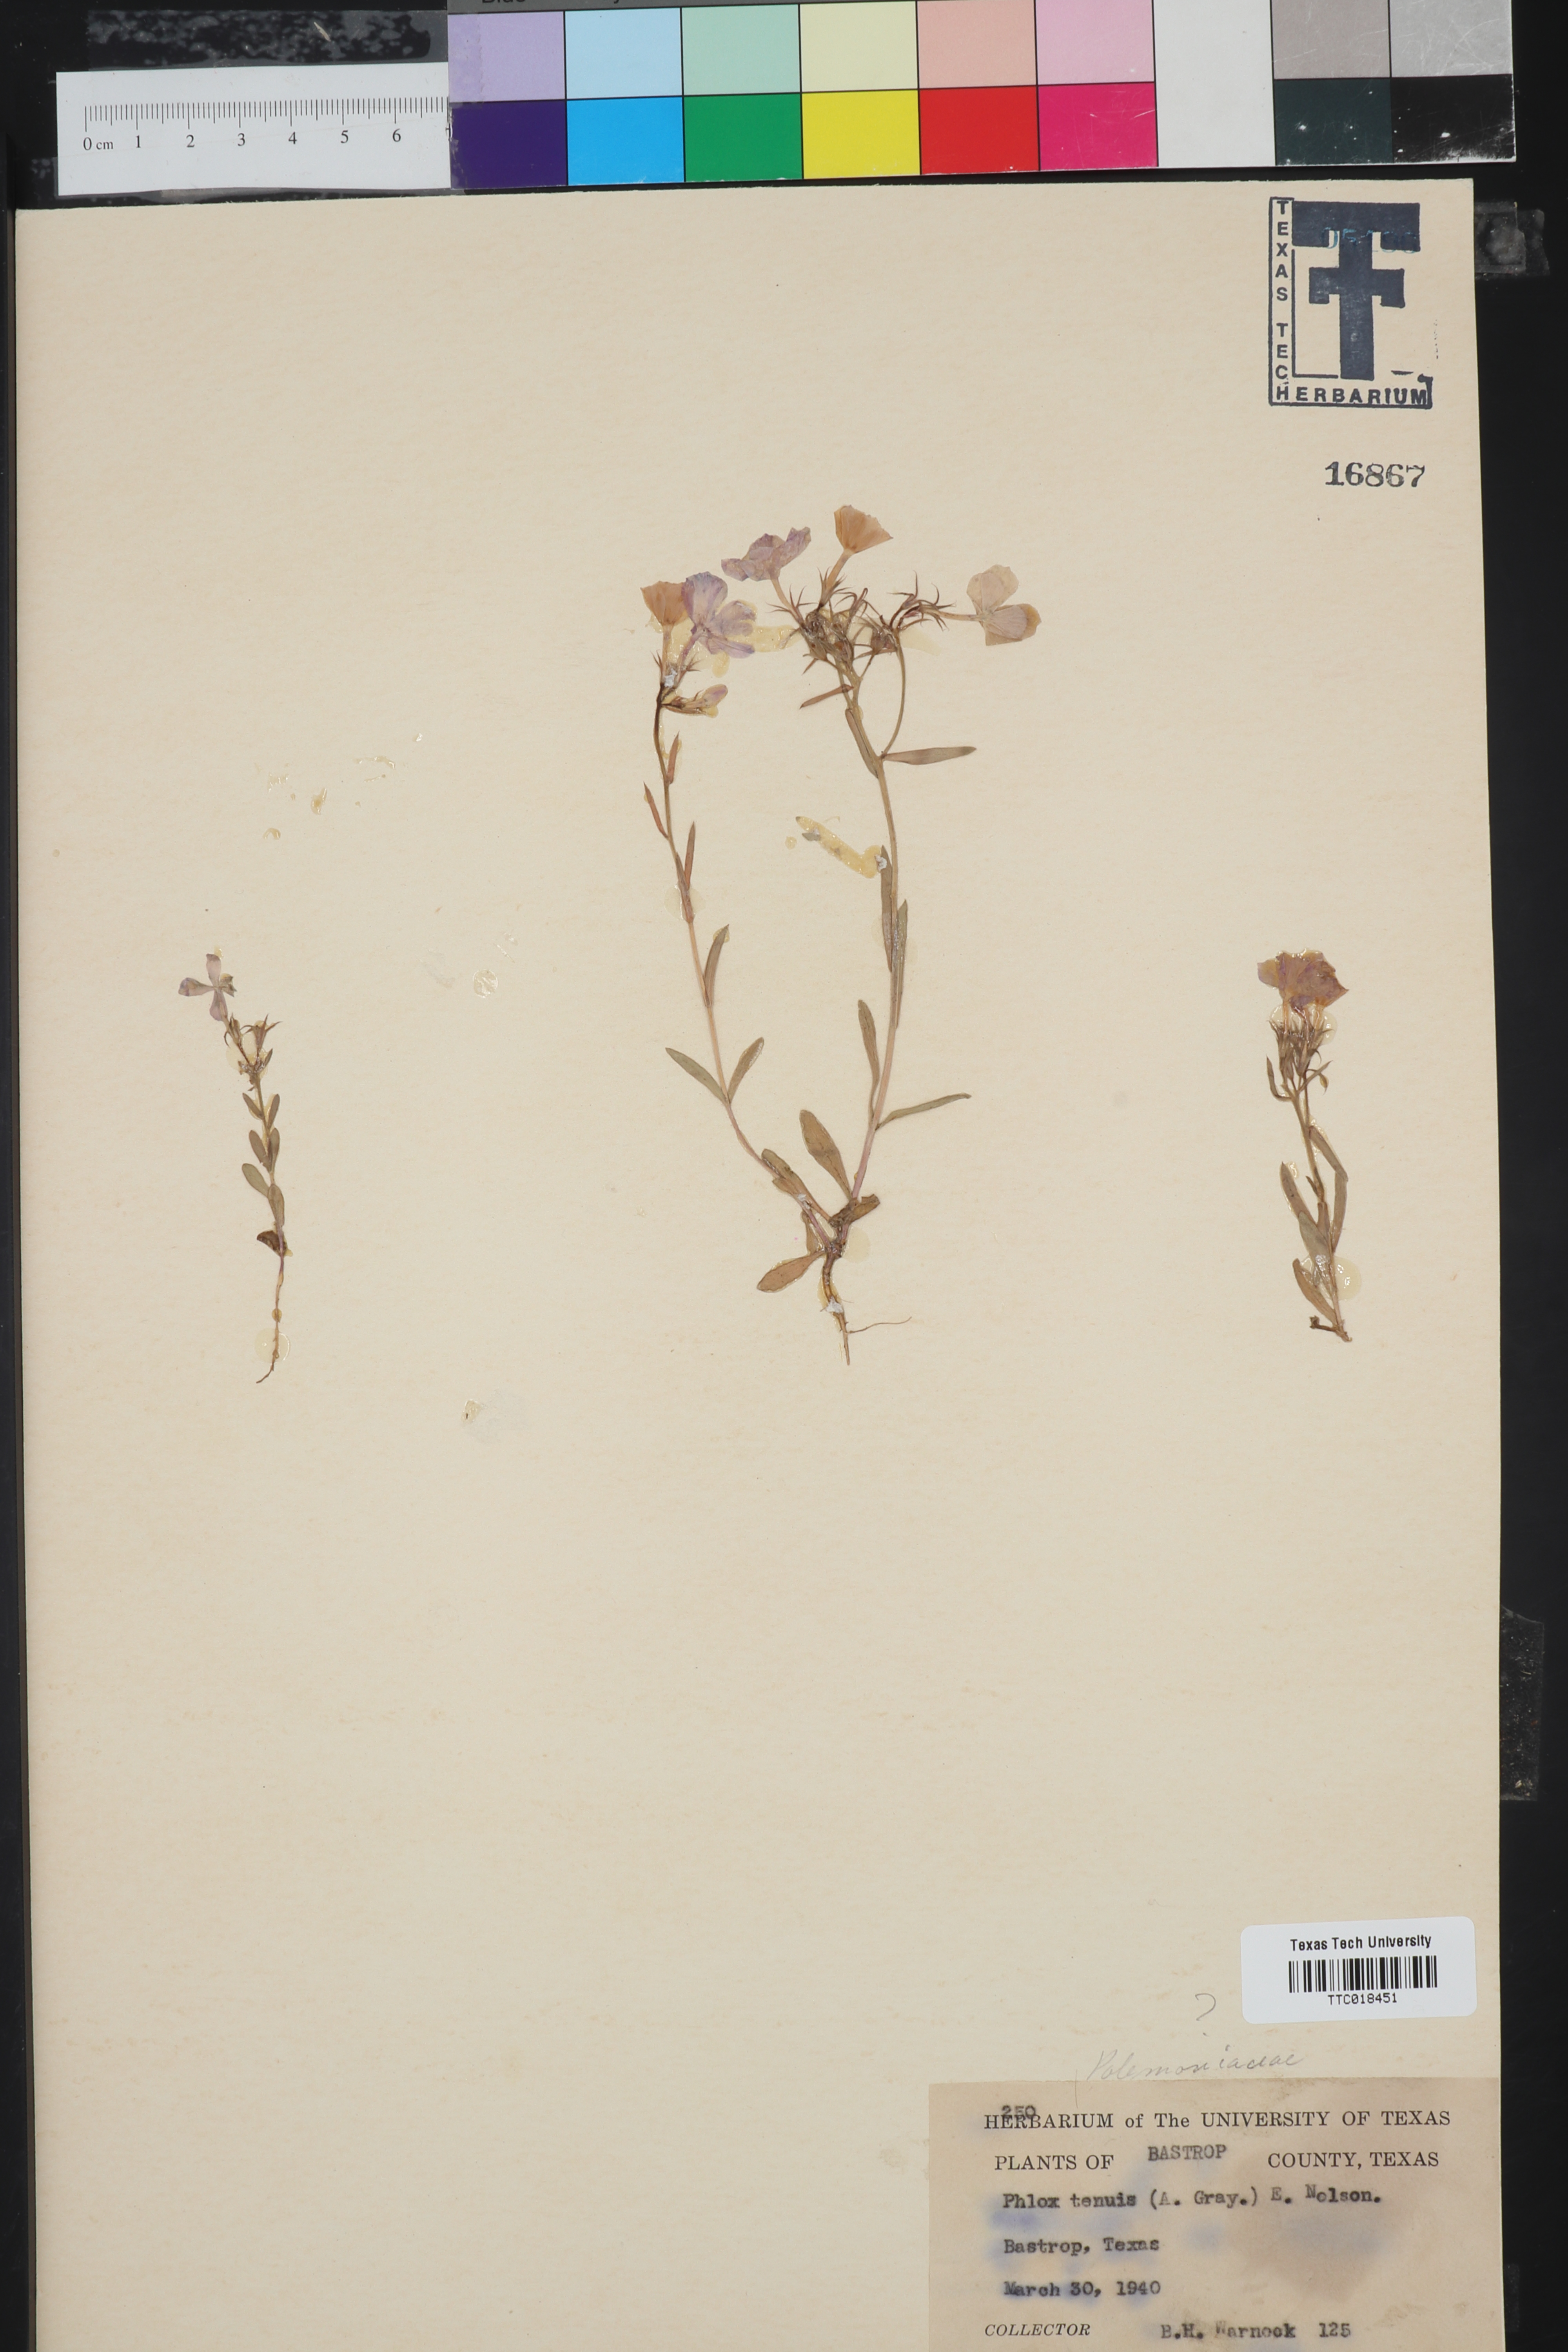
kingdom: Plantae
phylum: Tracheophyta
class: Magnoliopsida
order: Ericales
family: Polemoniaceae
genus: Phlox
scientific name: Phlox longifolia
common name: Longleaf phlox
